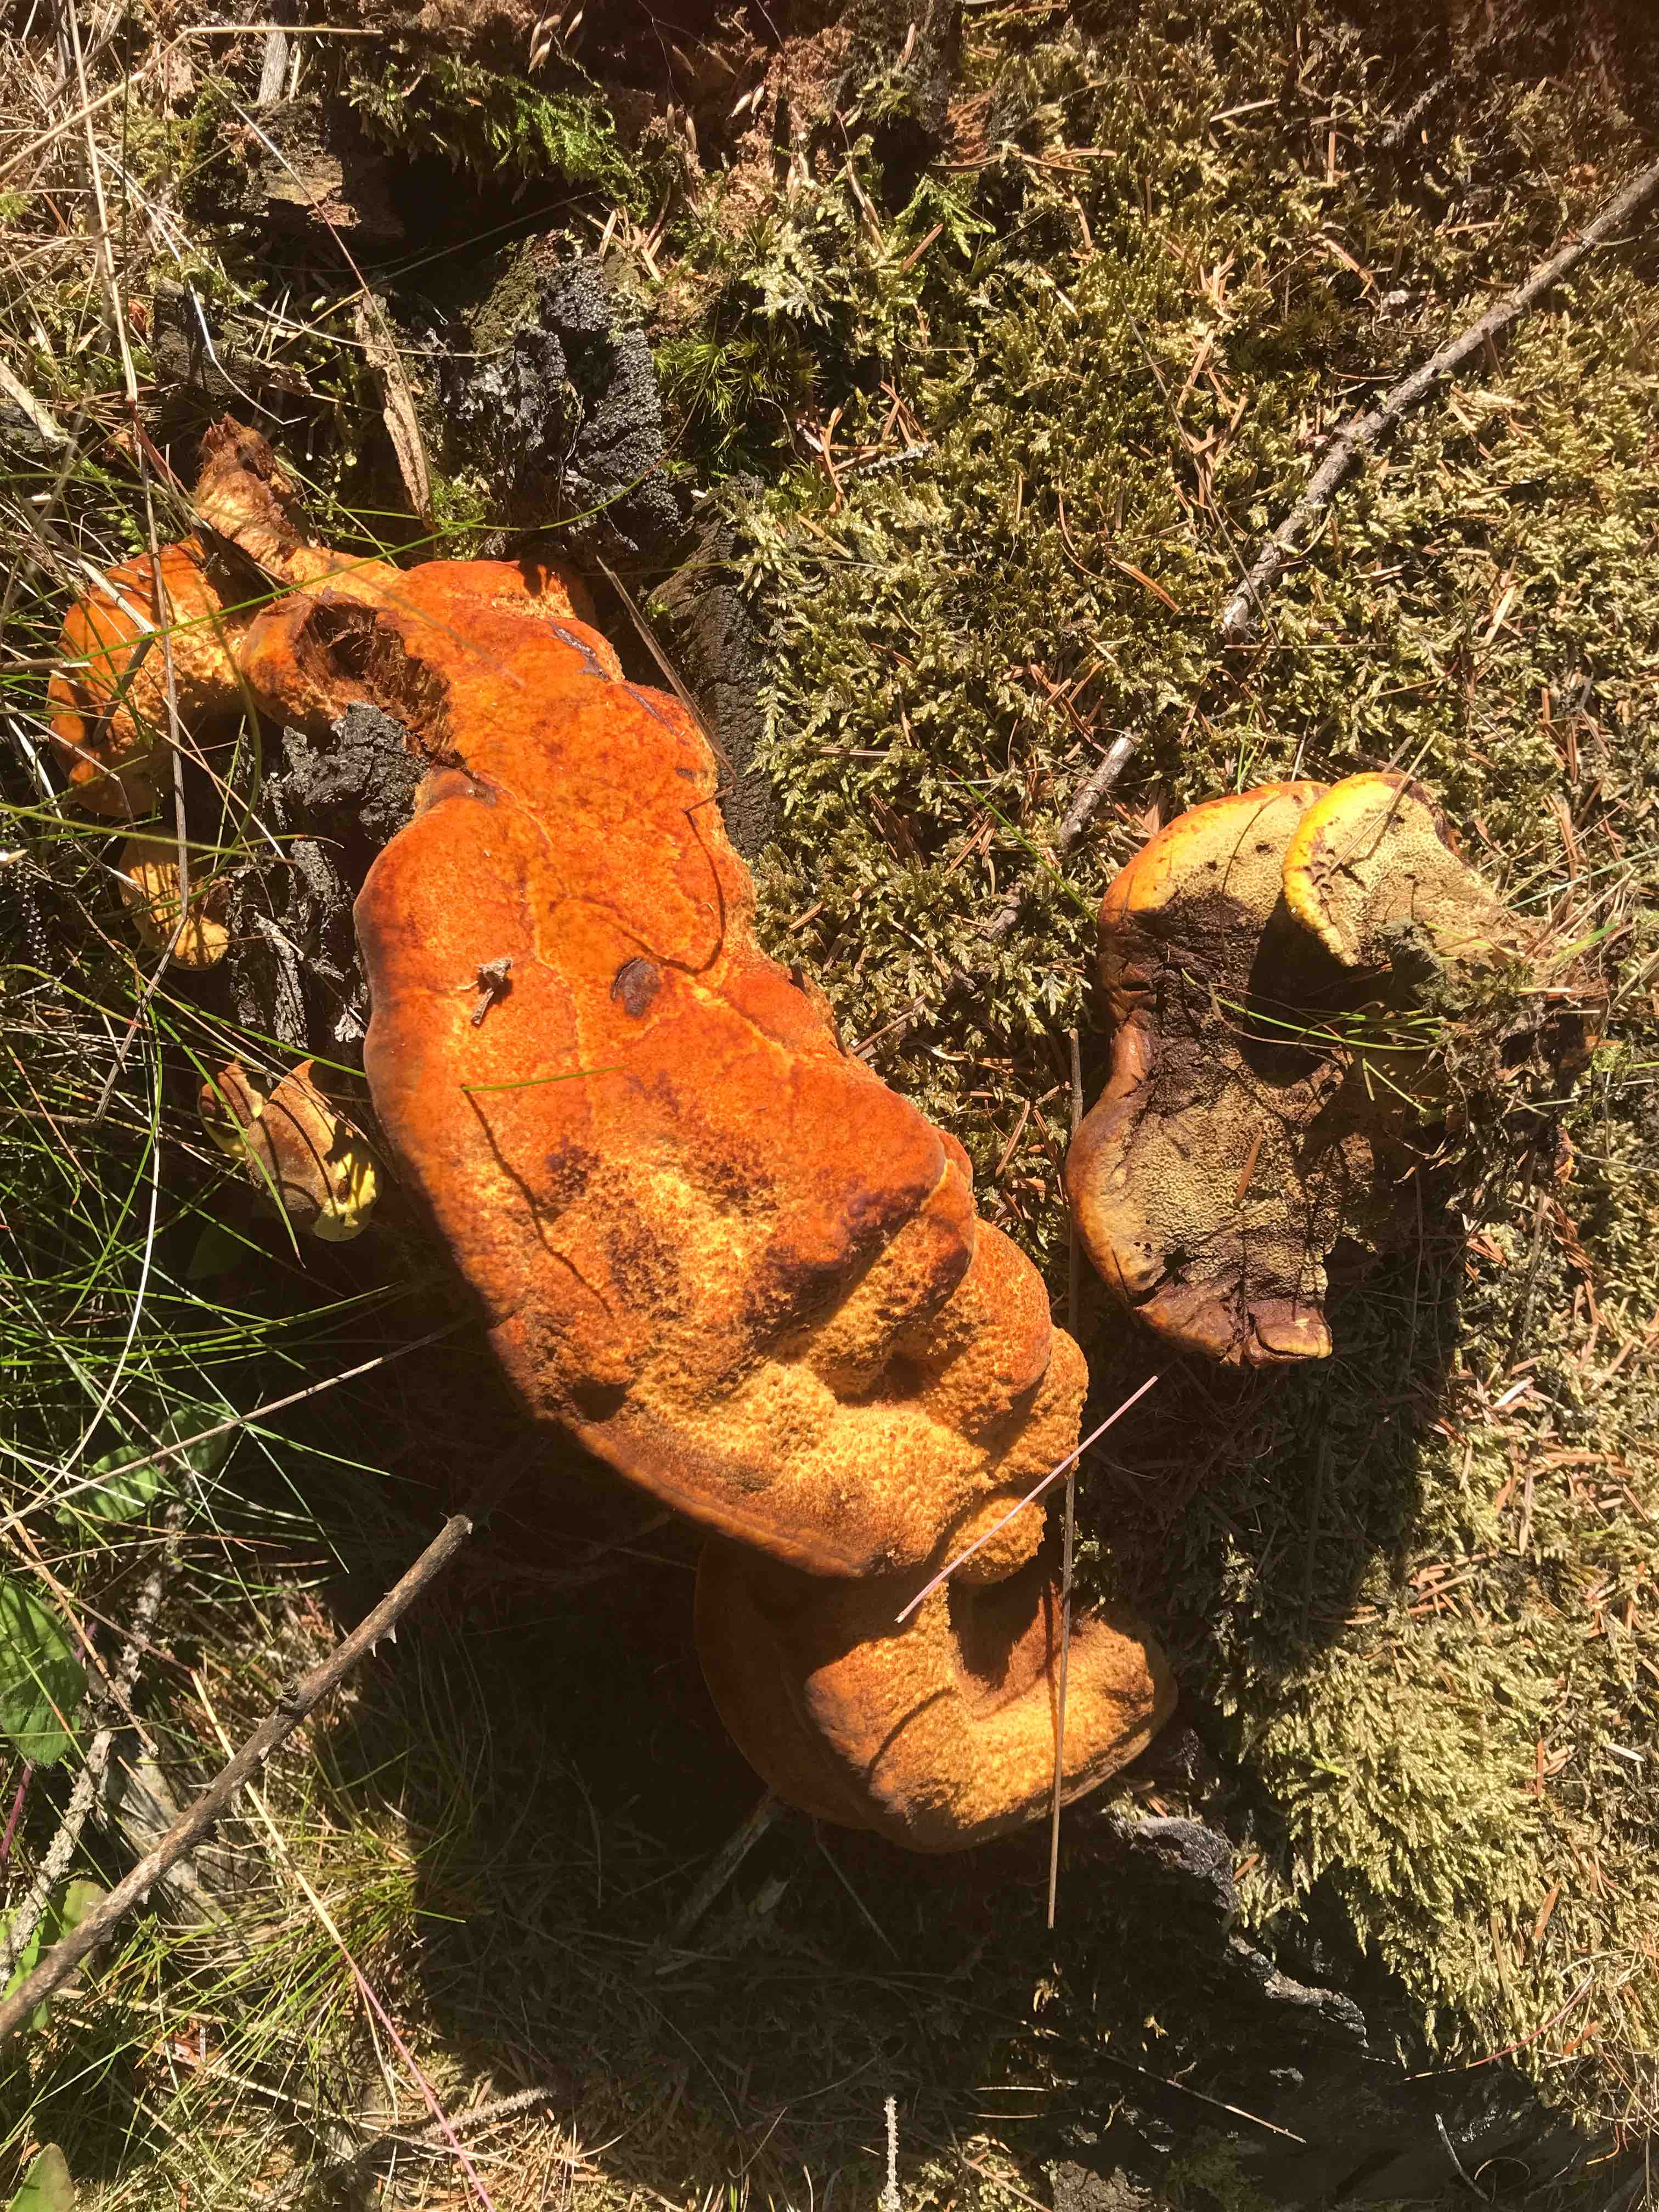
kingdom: Fungi
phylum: Basidiomycota
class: Agaricomycetes
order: Polyporales
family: Laetiporaceae
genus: Phaeolus
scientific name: Phaeolus schweinitzii
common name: brunporesvamp
